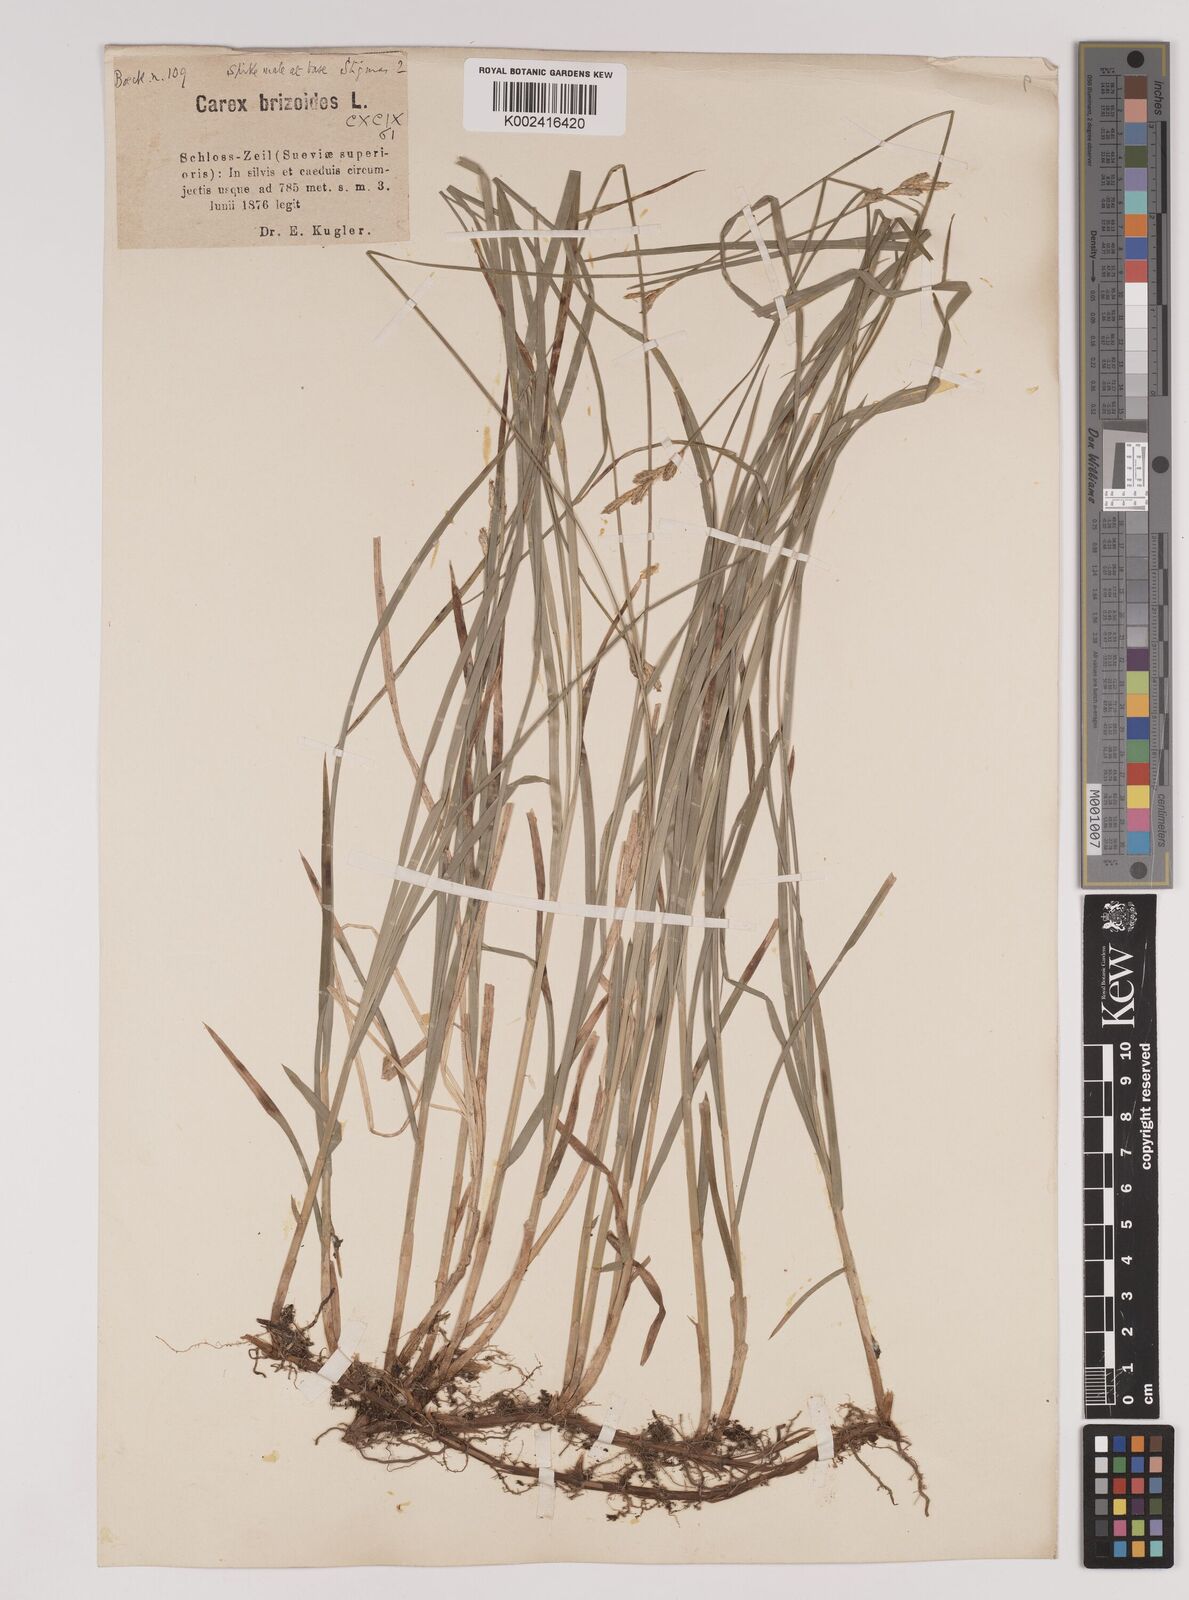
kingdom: Plantae
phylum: Tracheophyta
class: Liliopsida
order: Poales
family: Cyperaceae
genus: Carex
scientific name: Carex brizoides
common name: Quaking-grass sedge
